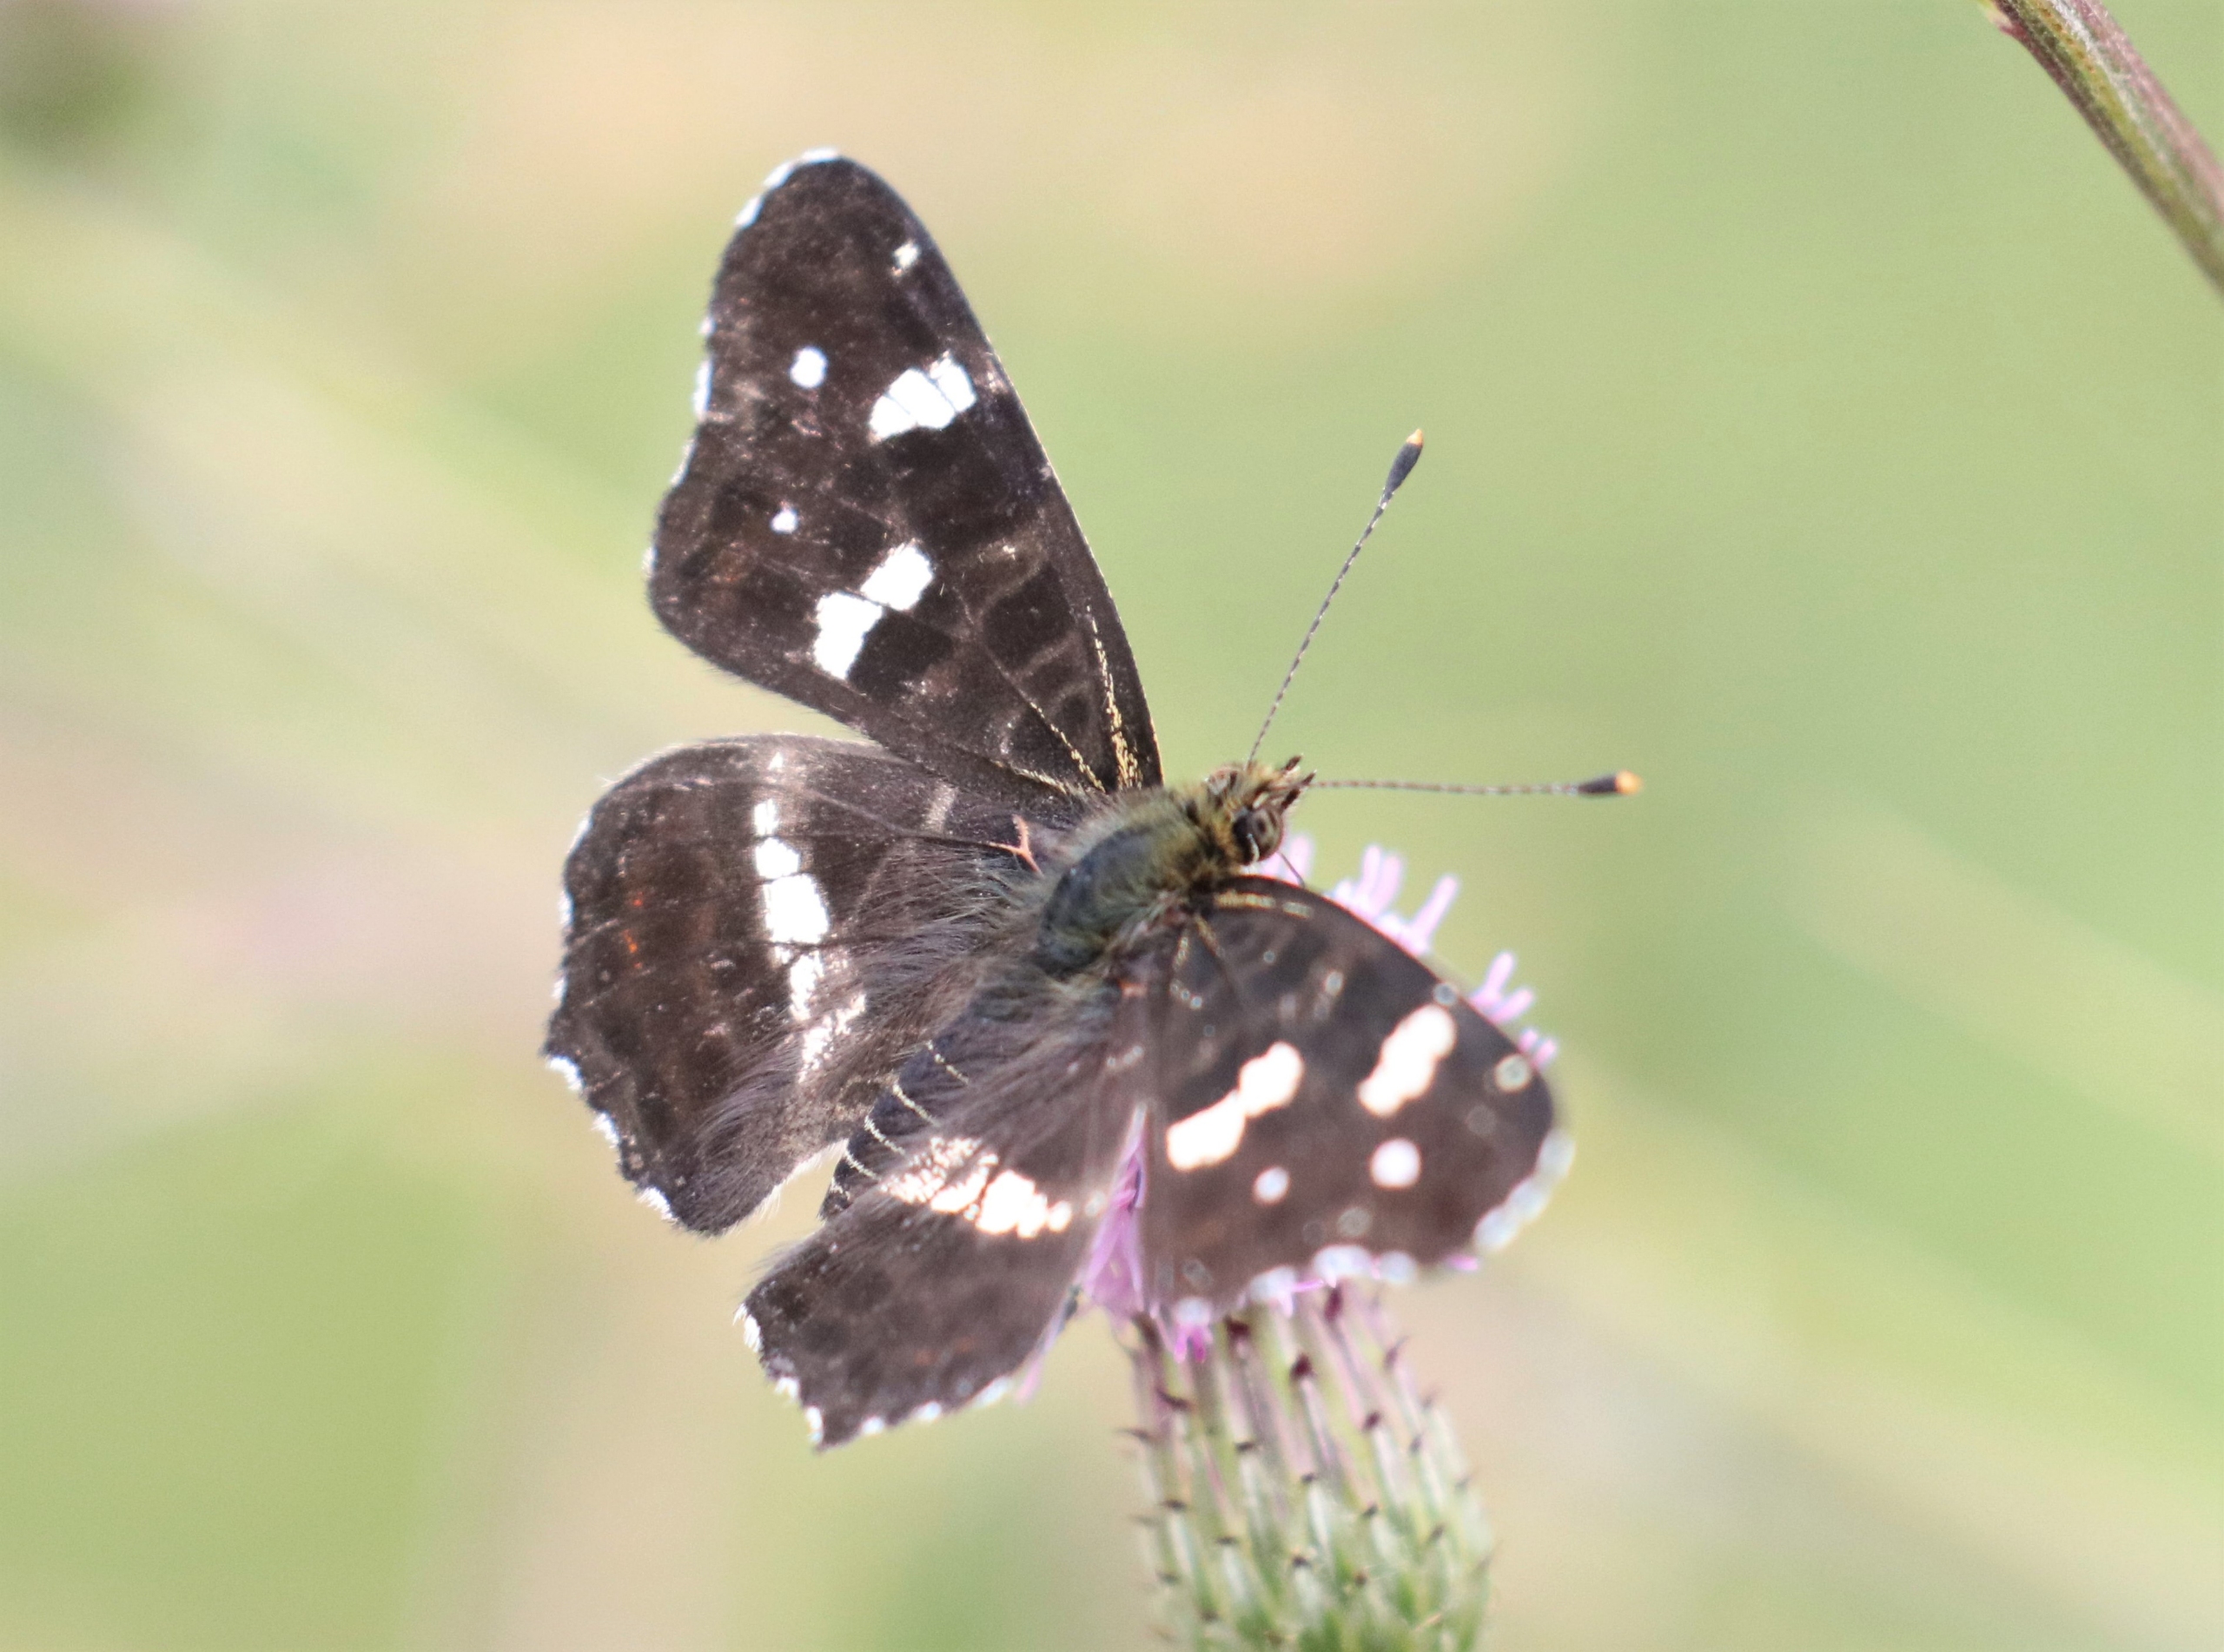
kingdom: Animalia
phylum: Arthropoda
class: Insecta
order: Lepidoptera
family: Nymphalidae
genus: Araschnia
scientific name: Araschnia levana
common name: Nældesommerfugl
